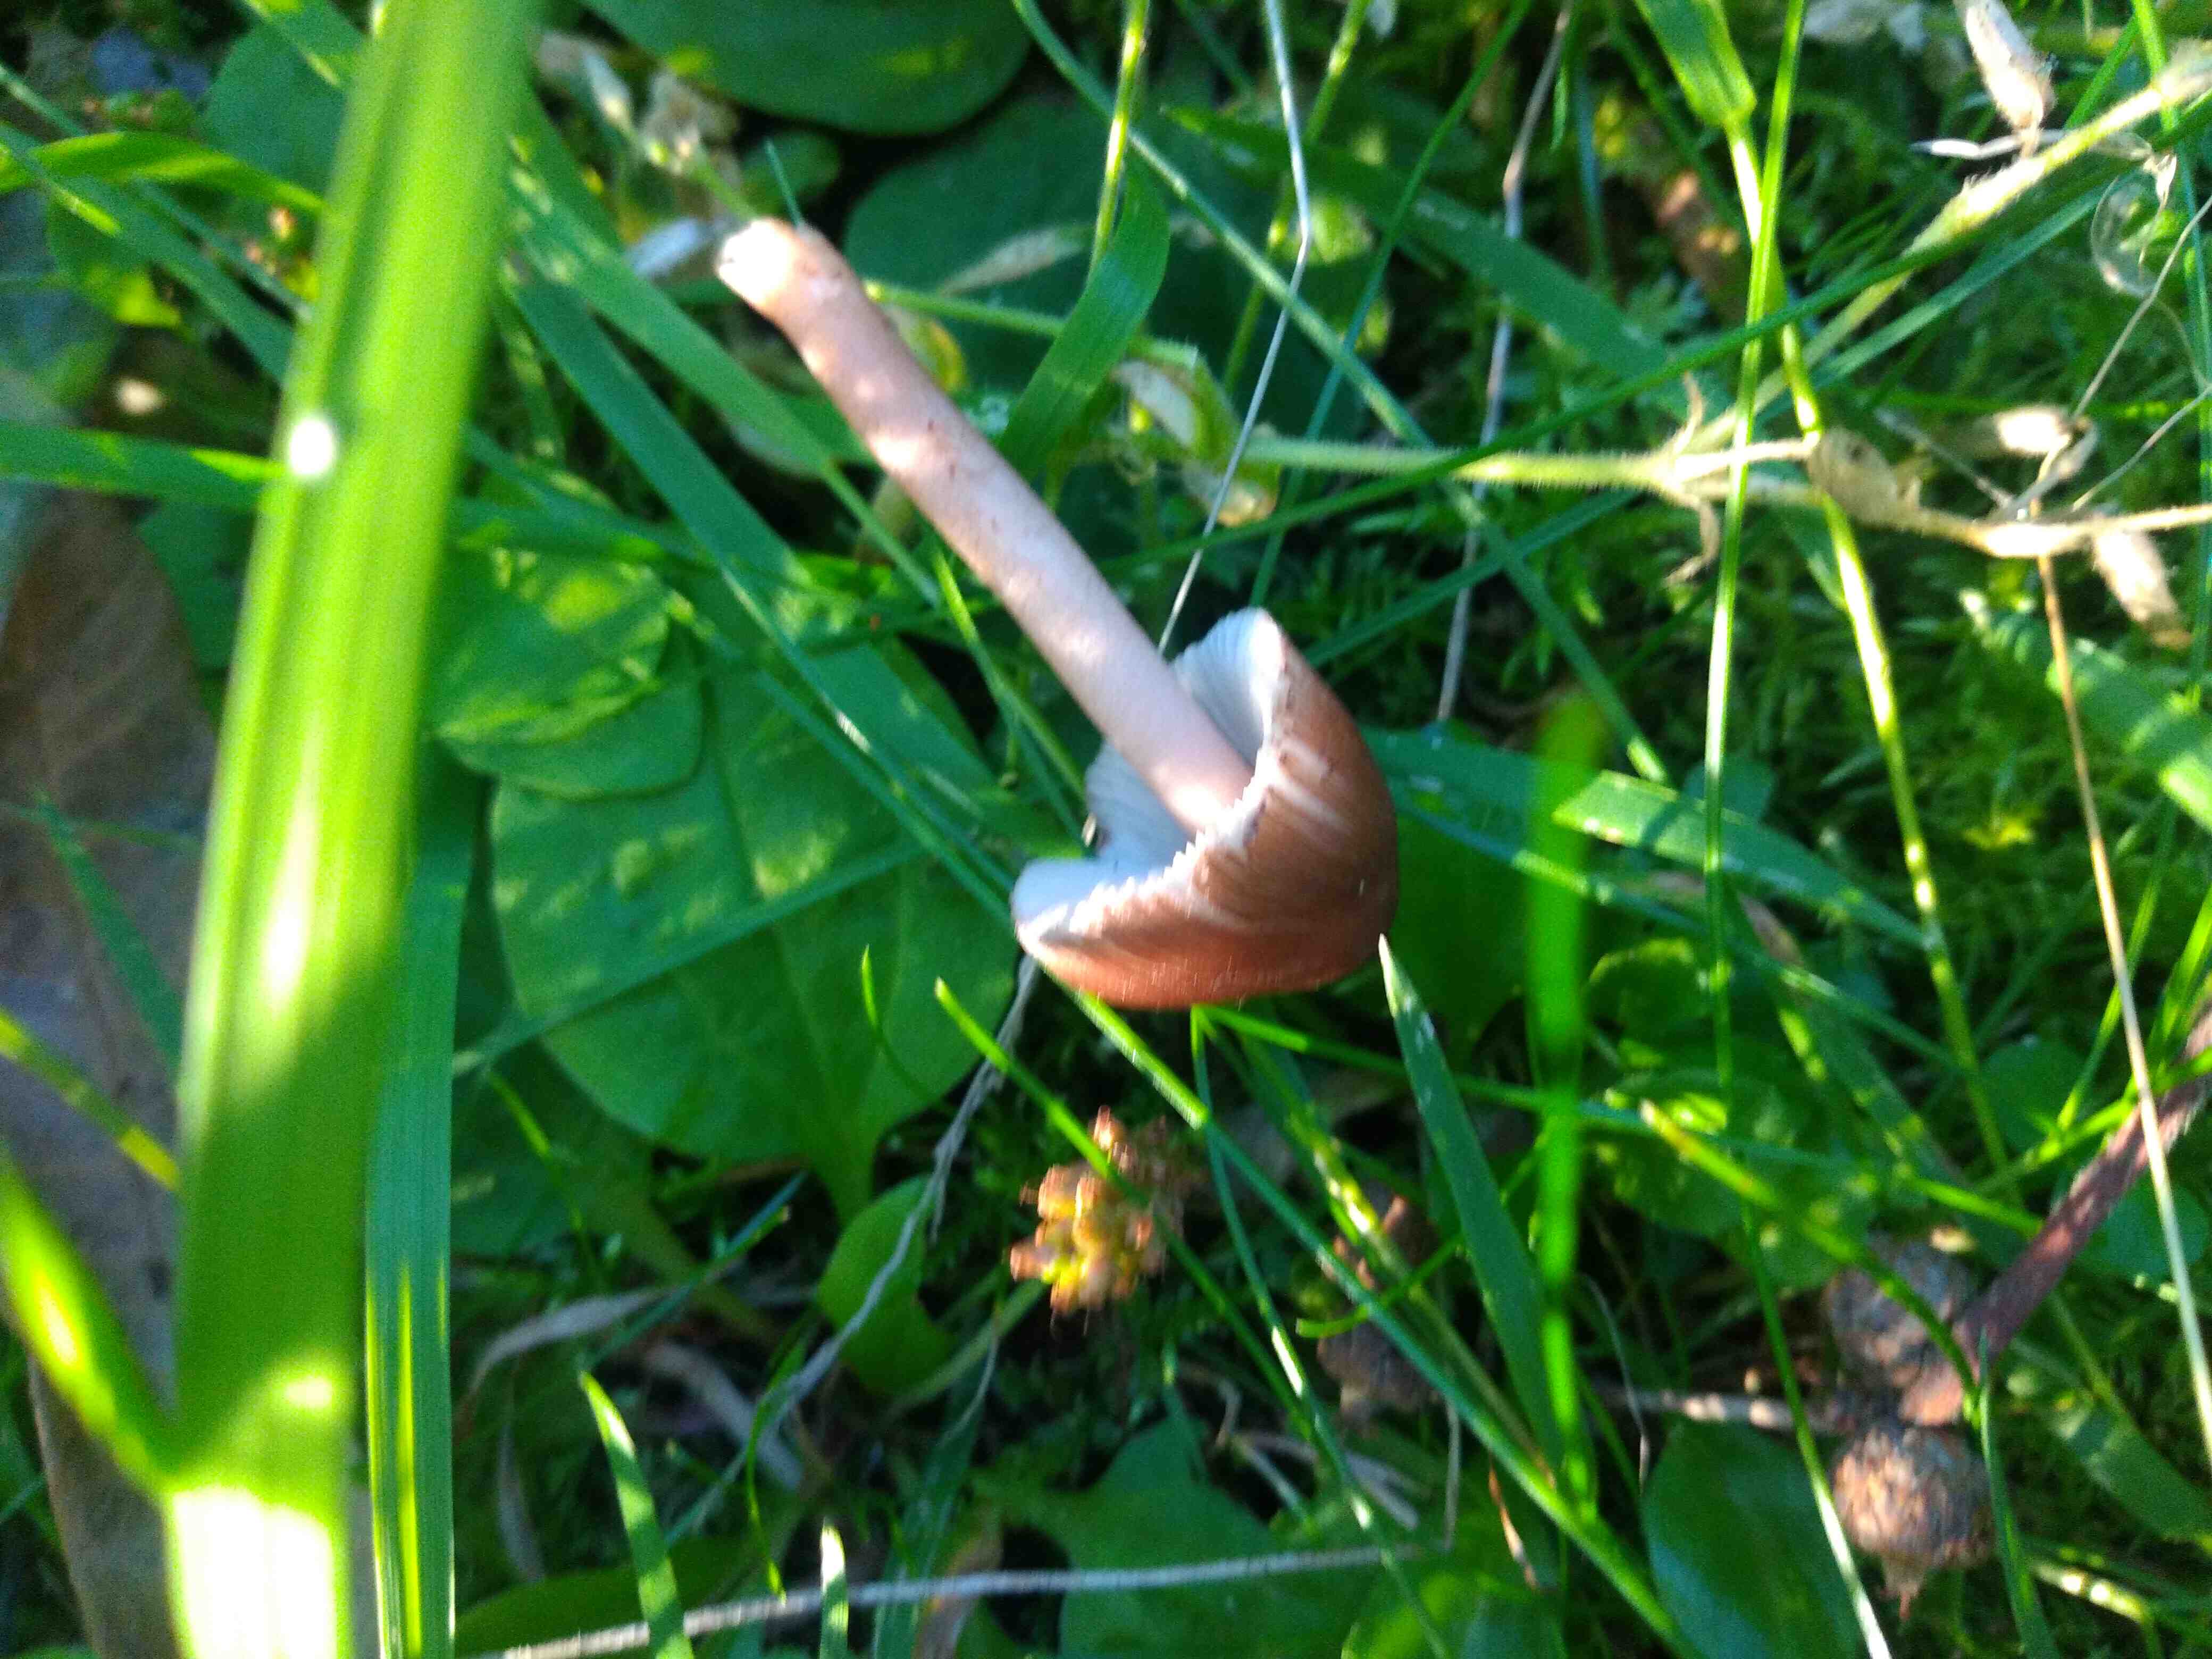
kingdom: Fungi
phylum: Basidiomycota
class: Agaricomycetes
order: Agaricales
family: Inocybaceae
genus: Inocybe
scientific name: Inocybe
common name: trævlhat
